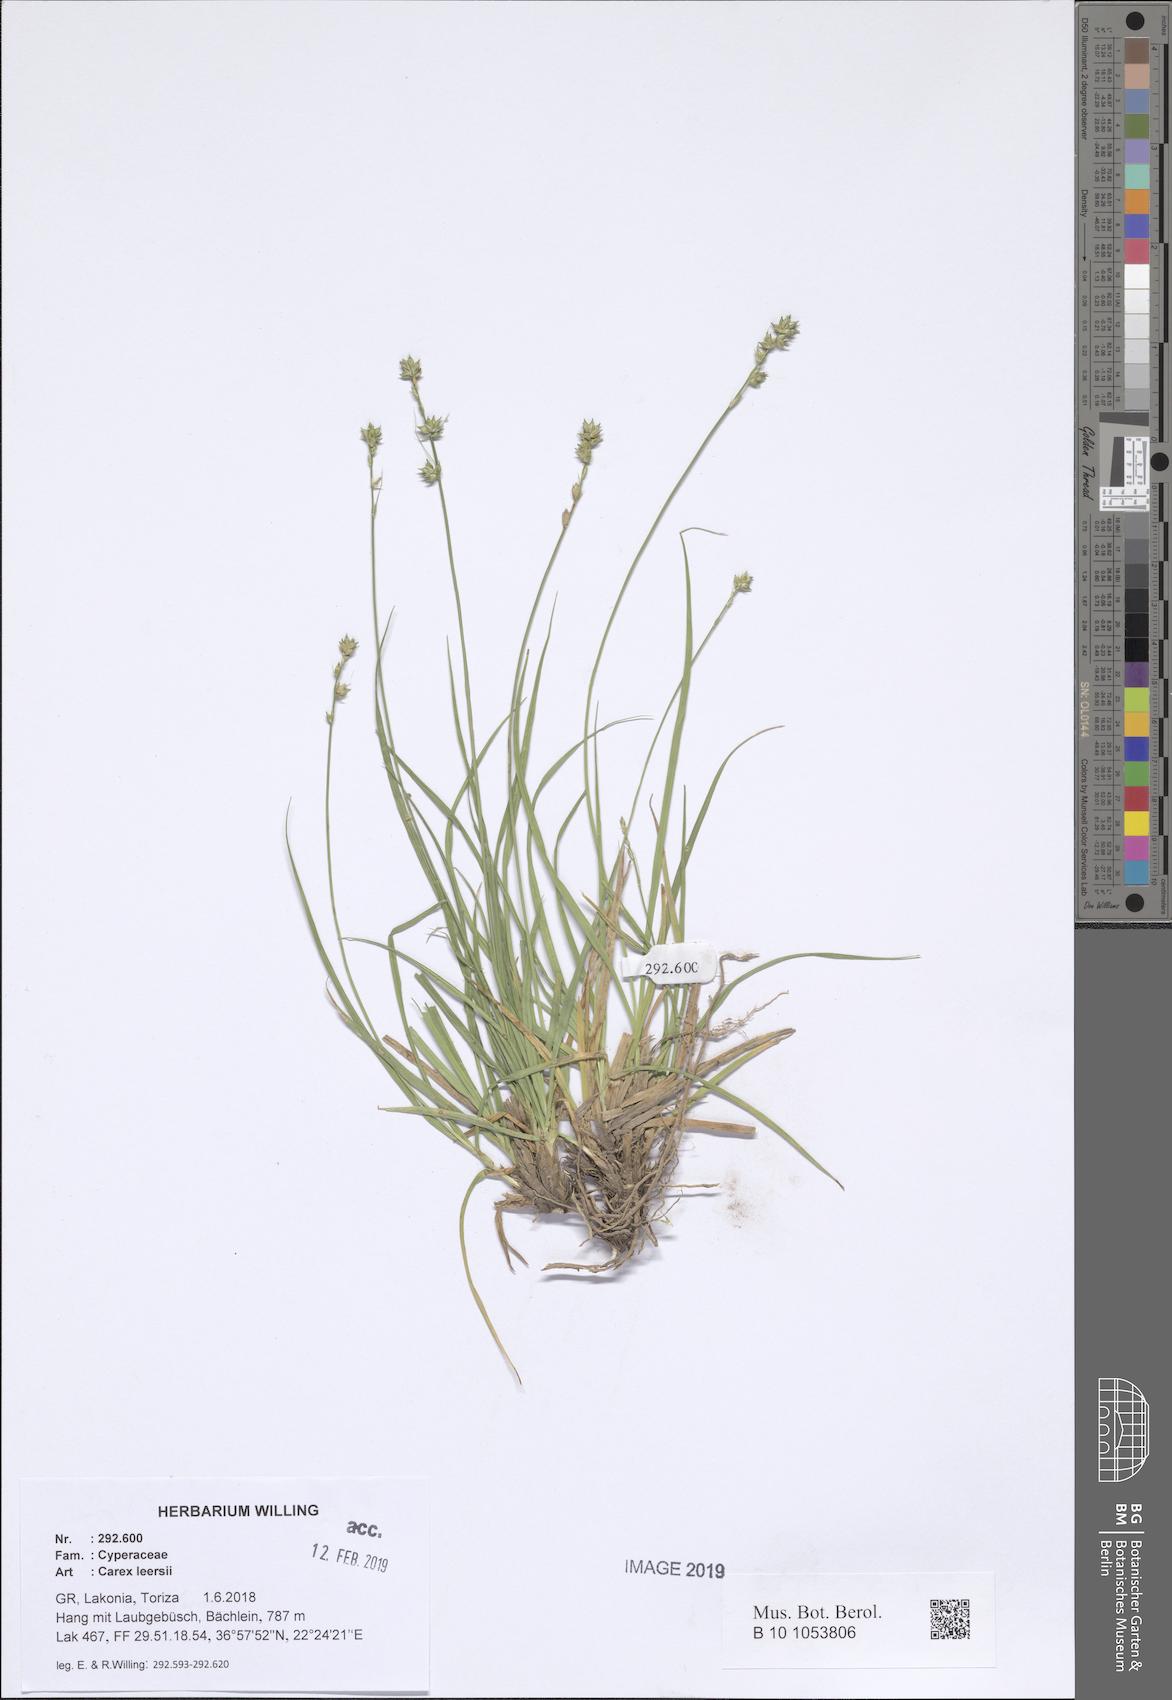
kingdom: Plantae
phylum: Tracheophyta
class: Liliopsida
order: Poales
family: Cyperaceae
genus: Carex
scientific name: Carex leersii
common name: Leers' sedge
